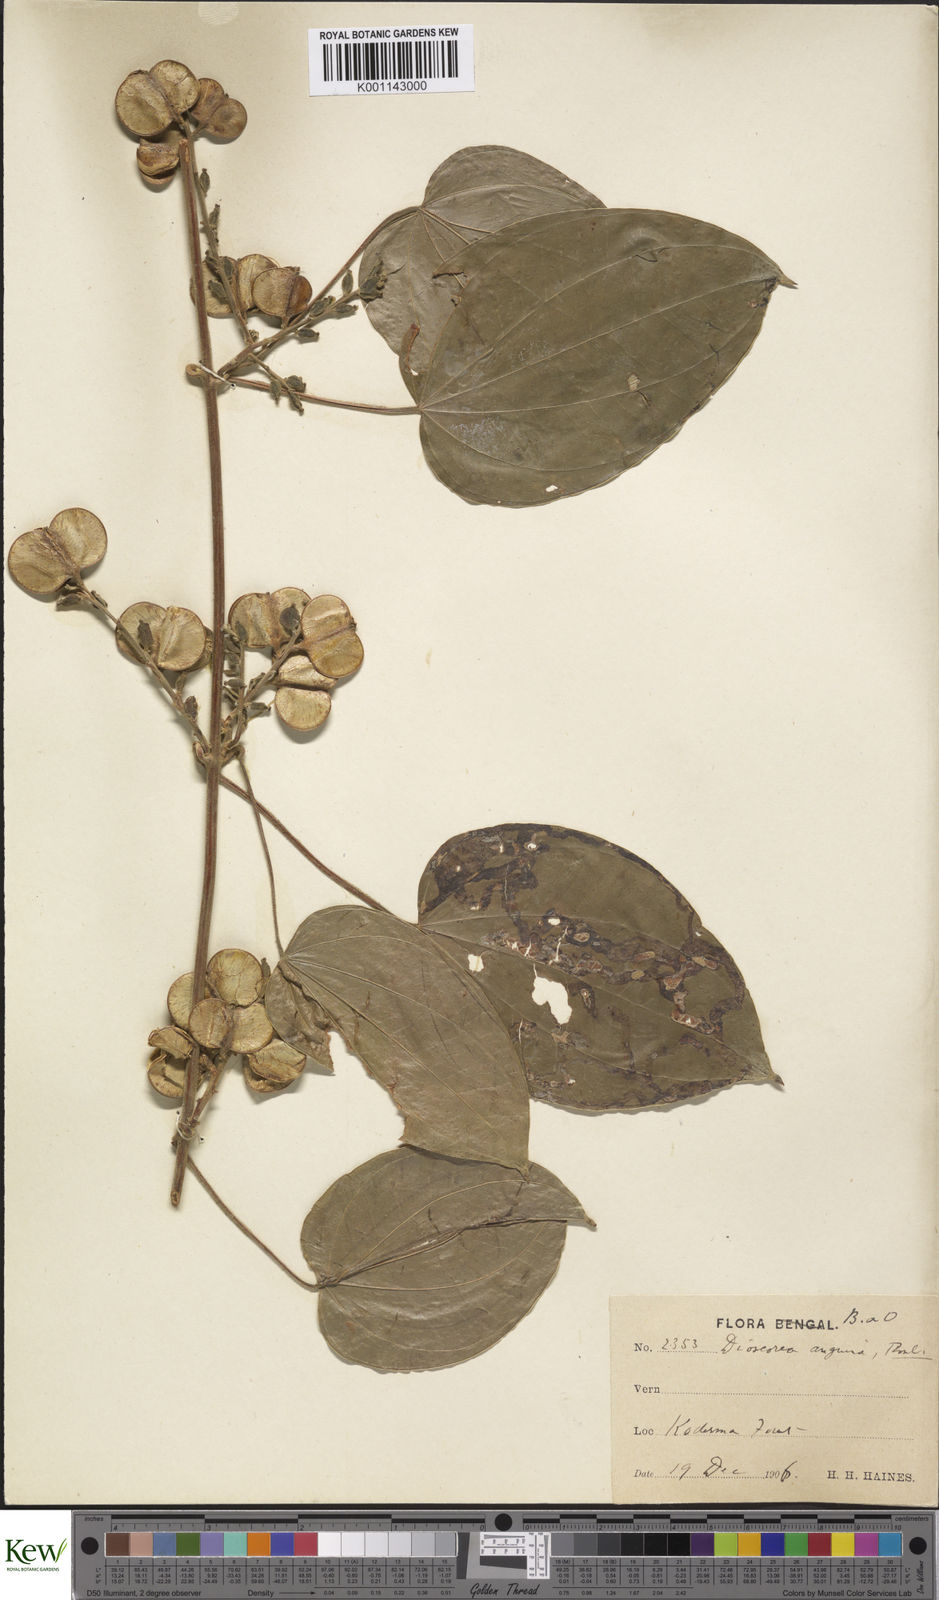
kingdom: Plantae
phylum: Tracheophyta
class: Liliopsida
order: Dioscoreales
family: Dioscoreaceae
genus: Dioscorea
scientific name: Dioscorea pubera
